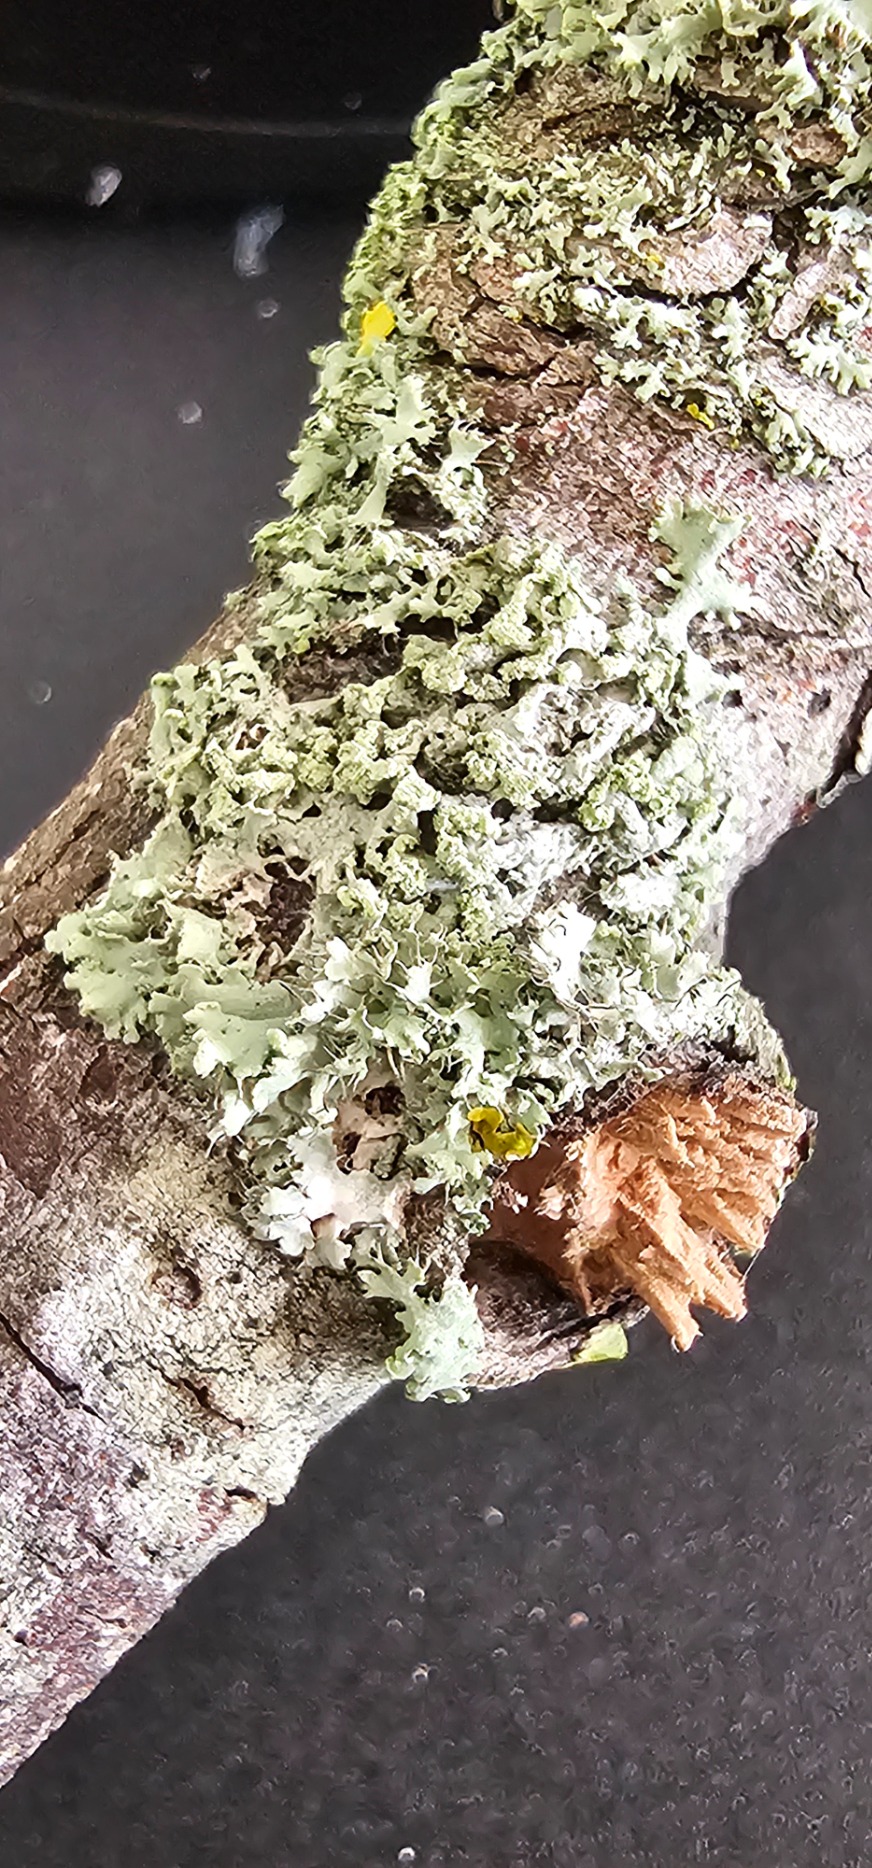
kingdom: Fungi
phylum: Ascomycota
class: Lecanoromycetes
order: Caliciales
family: Physciaceae
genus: Physcia
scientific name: Physcia tenella
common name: Spæd rosetlav
